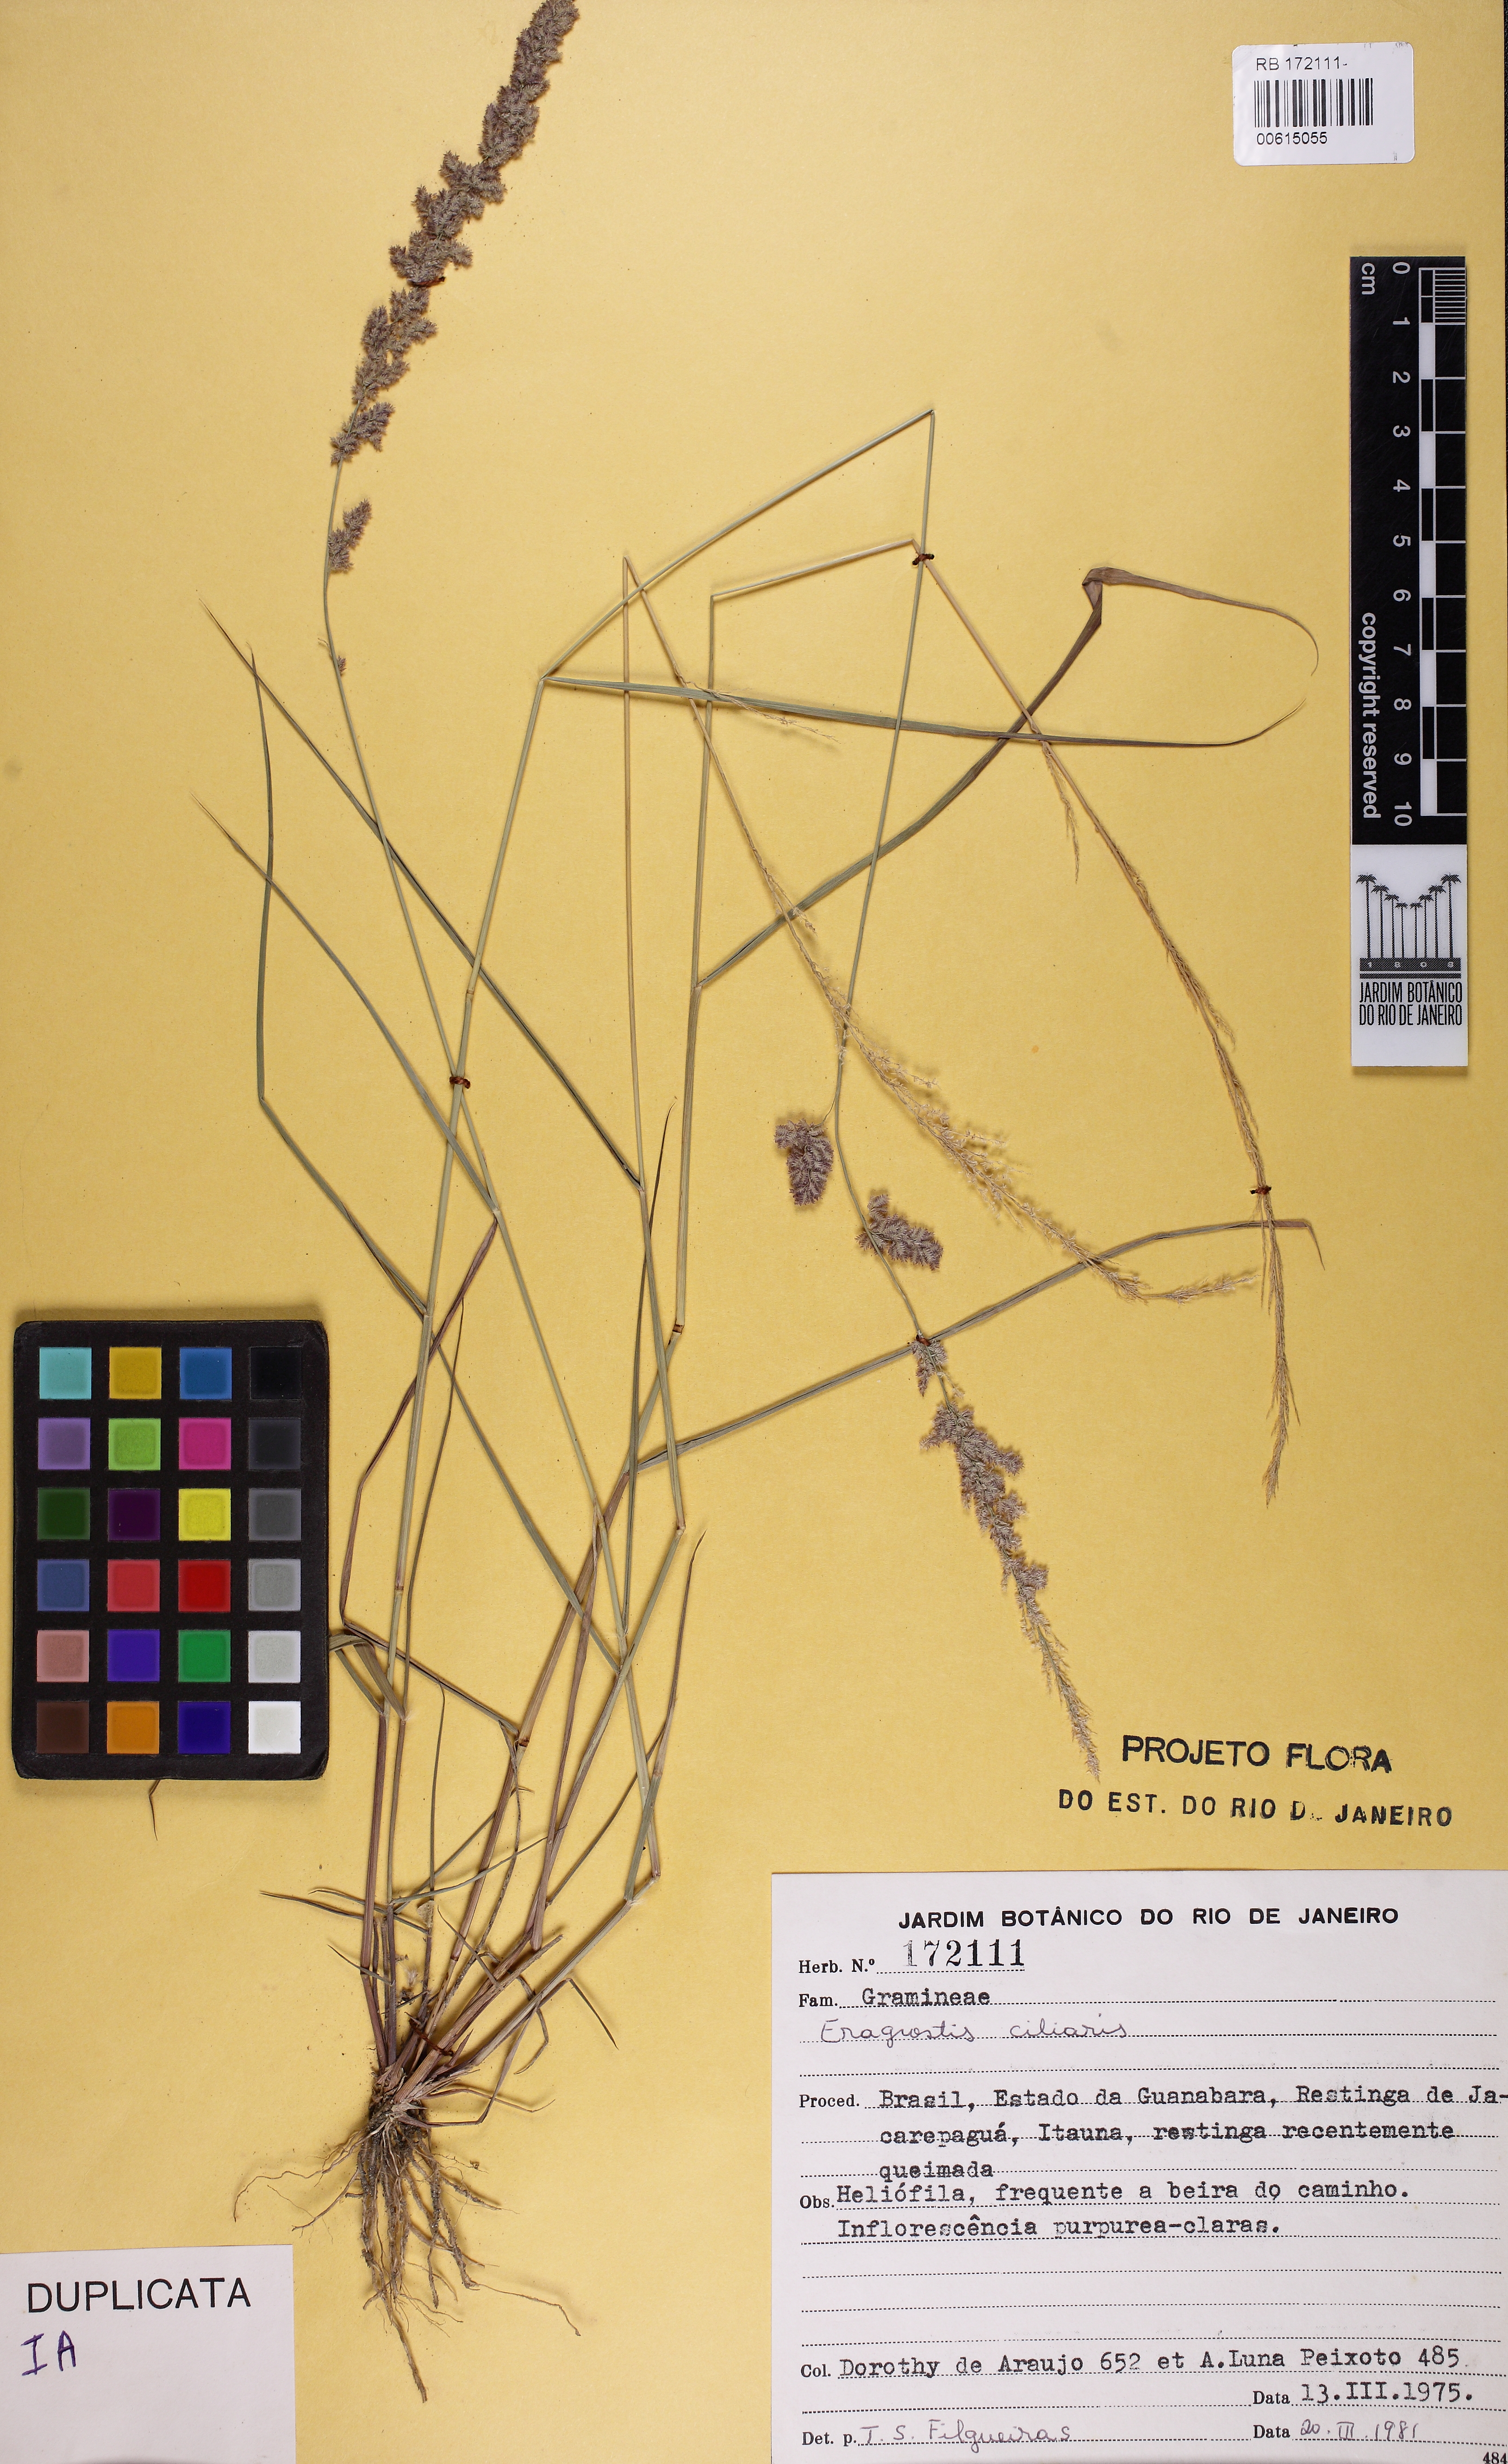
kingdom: Plantae
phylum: Tracheophyta
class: Liliopsida
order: Poales
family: Poaceae
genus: Eragrostis
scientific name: Eragrostis ciliaris
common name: Gophertail lovegrass
